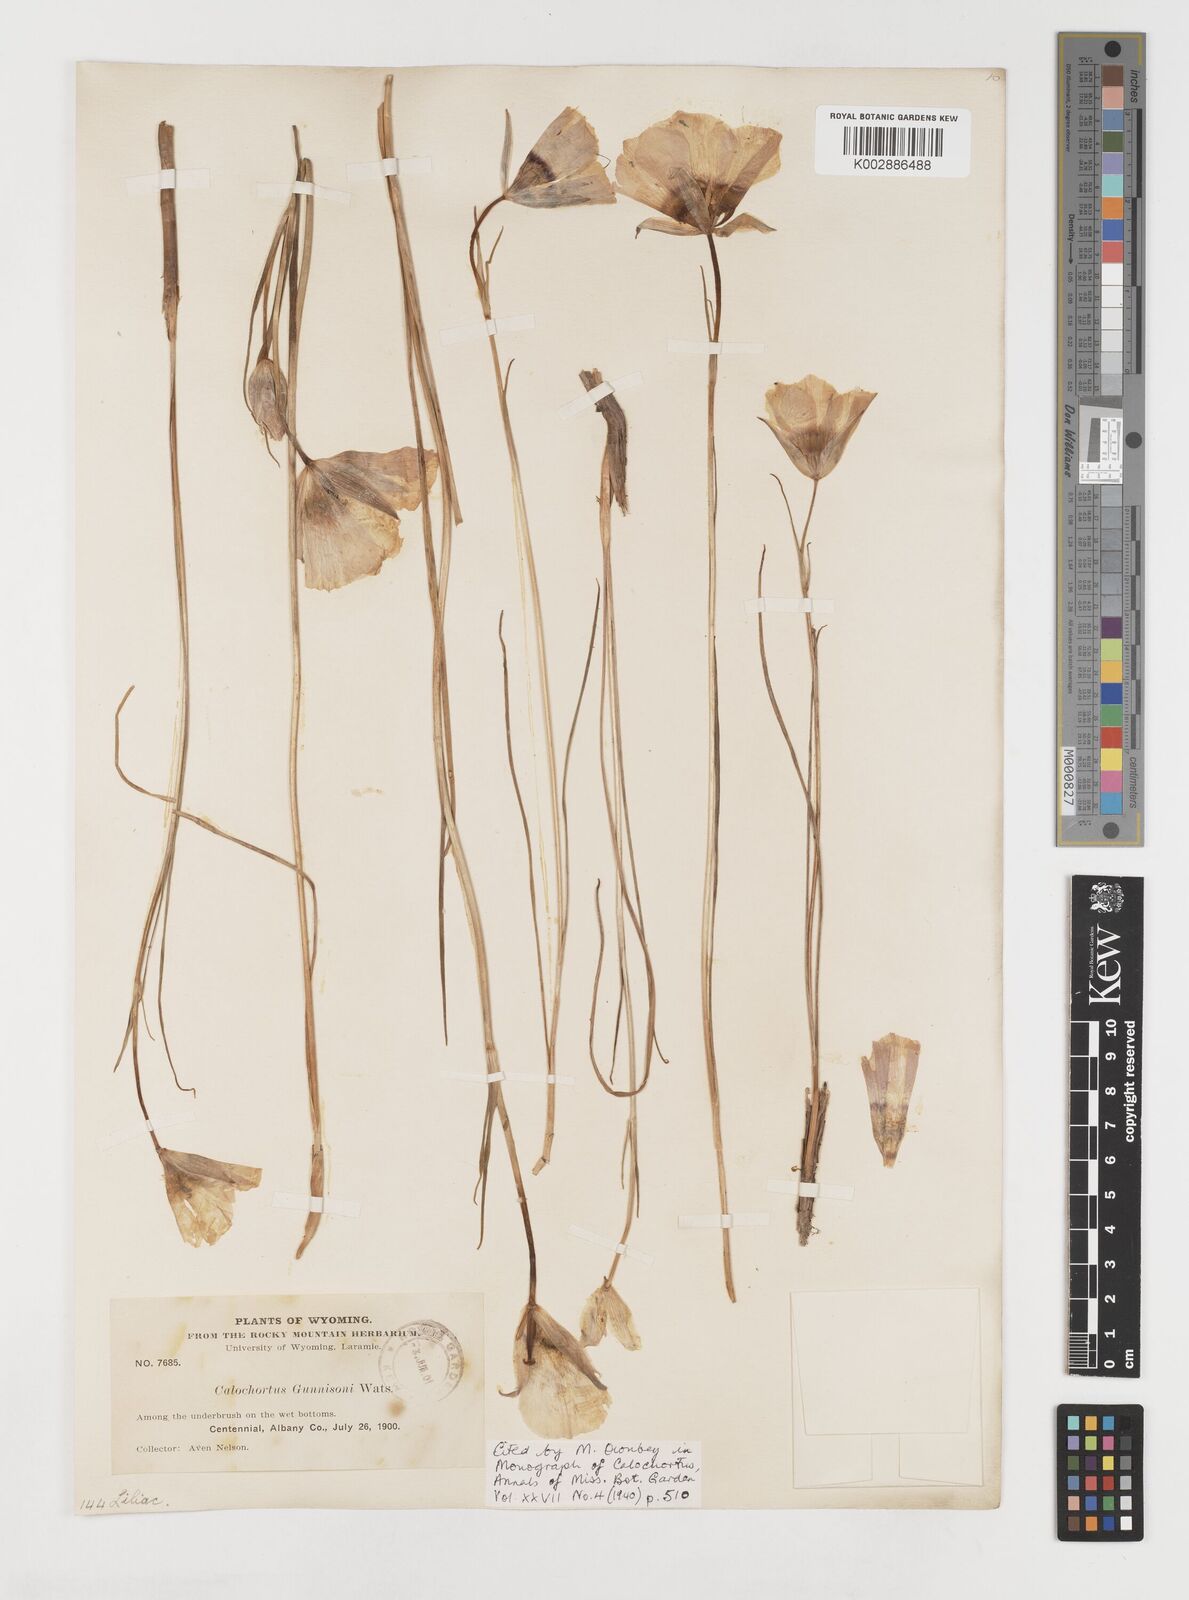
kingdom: Plantae
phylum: Tracheophyta
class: Liliopsida
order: Liliales
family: Liliaceae
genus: Calochortus
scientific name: Calochortus gunnisonii
